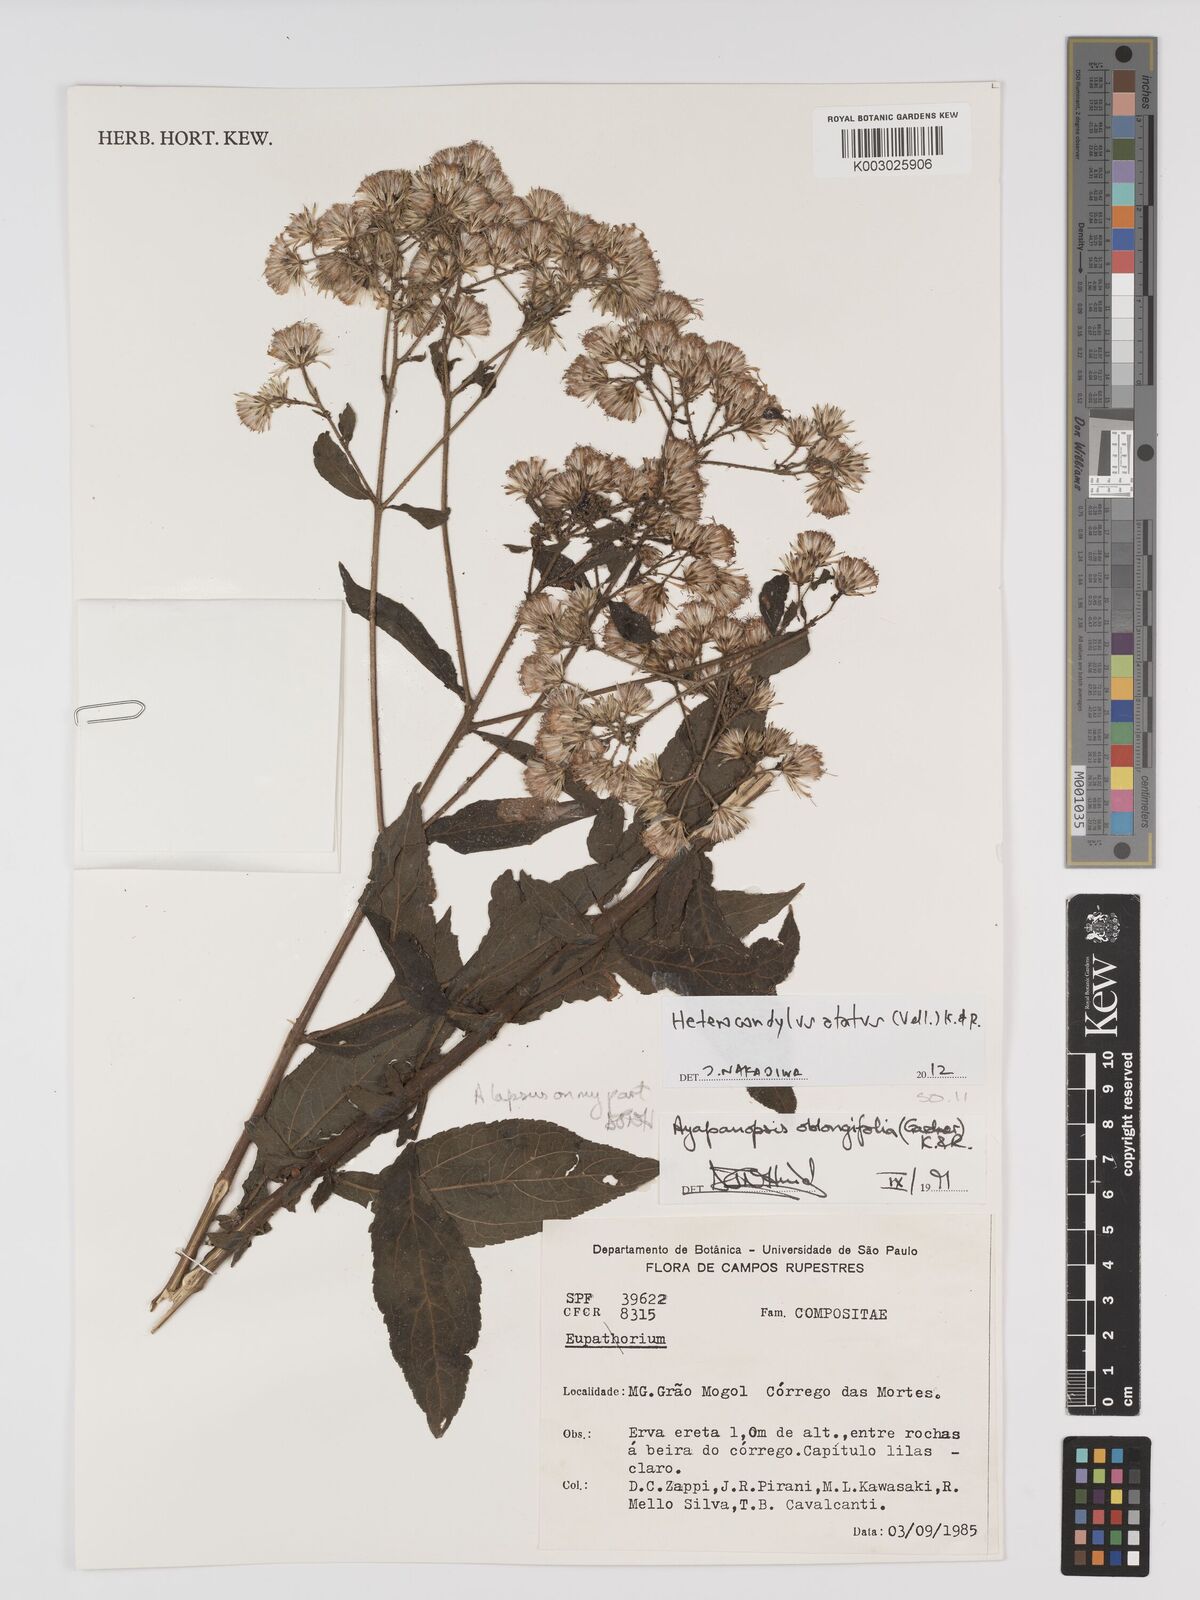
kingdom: Plantae
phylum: Tracheophyta
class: Magnoliopsida
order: Asterales
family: Asteraceae
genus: Heterocondylus
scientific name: Heterocondylus alatus
